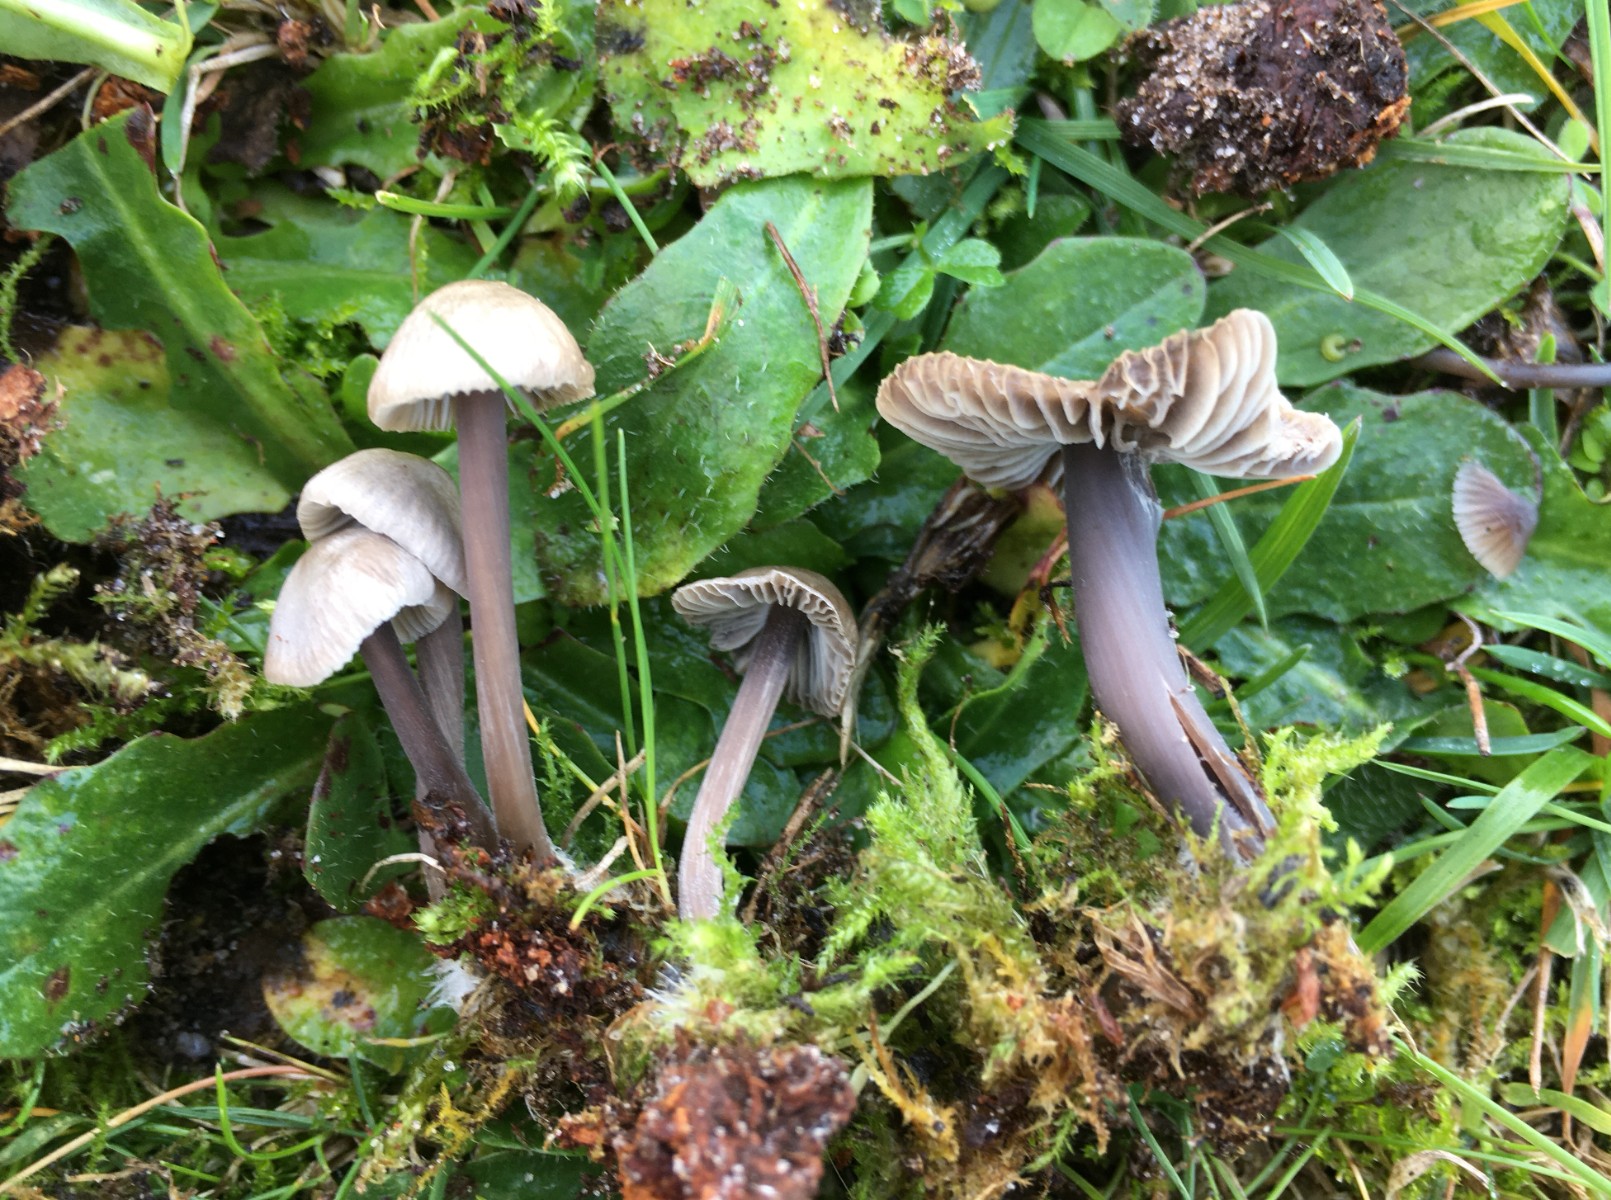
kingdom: Fungi
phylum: Basidiomycota
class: Agaricomycetes
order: Agaricales
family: Mycenaceae
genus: Mycena
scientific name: Mycena aetites
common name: plæne-huesvamp
